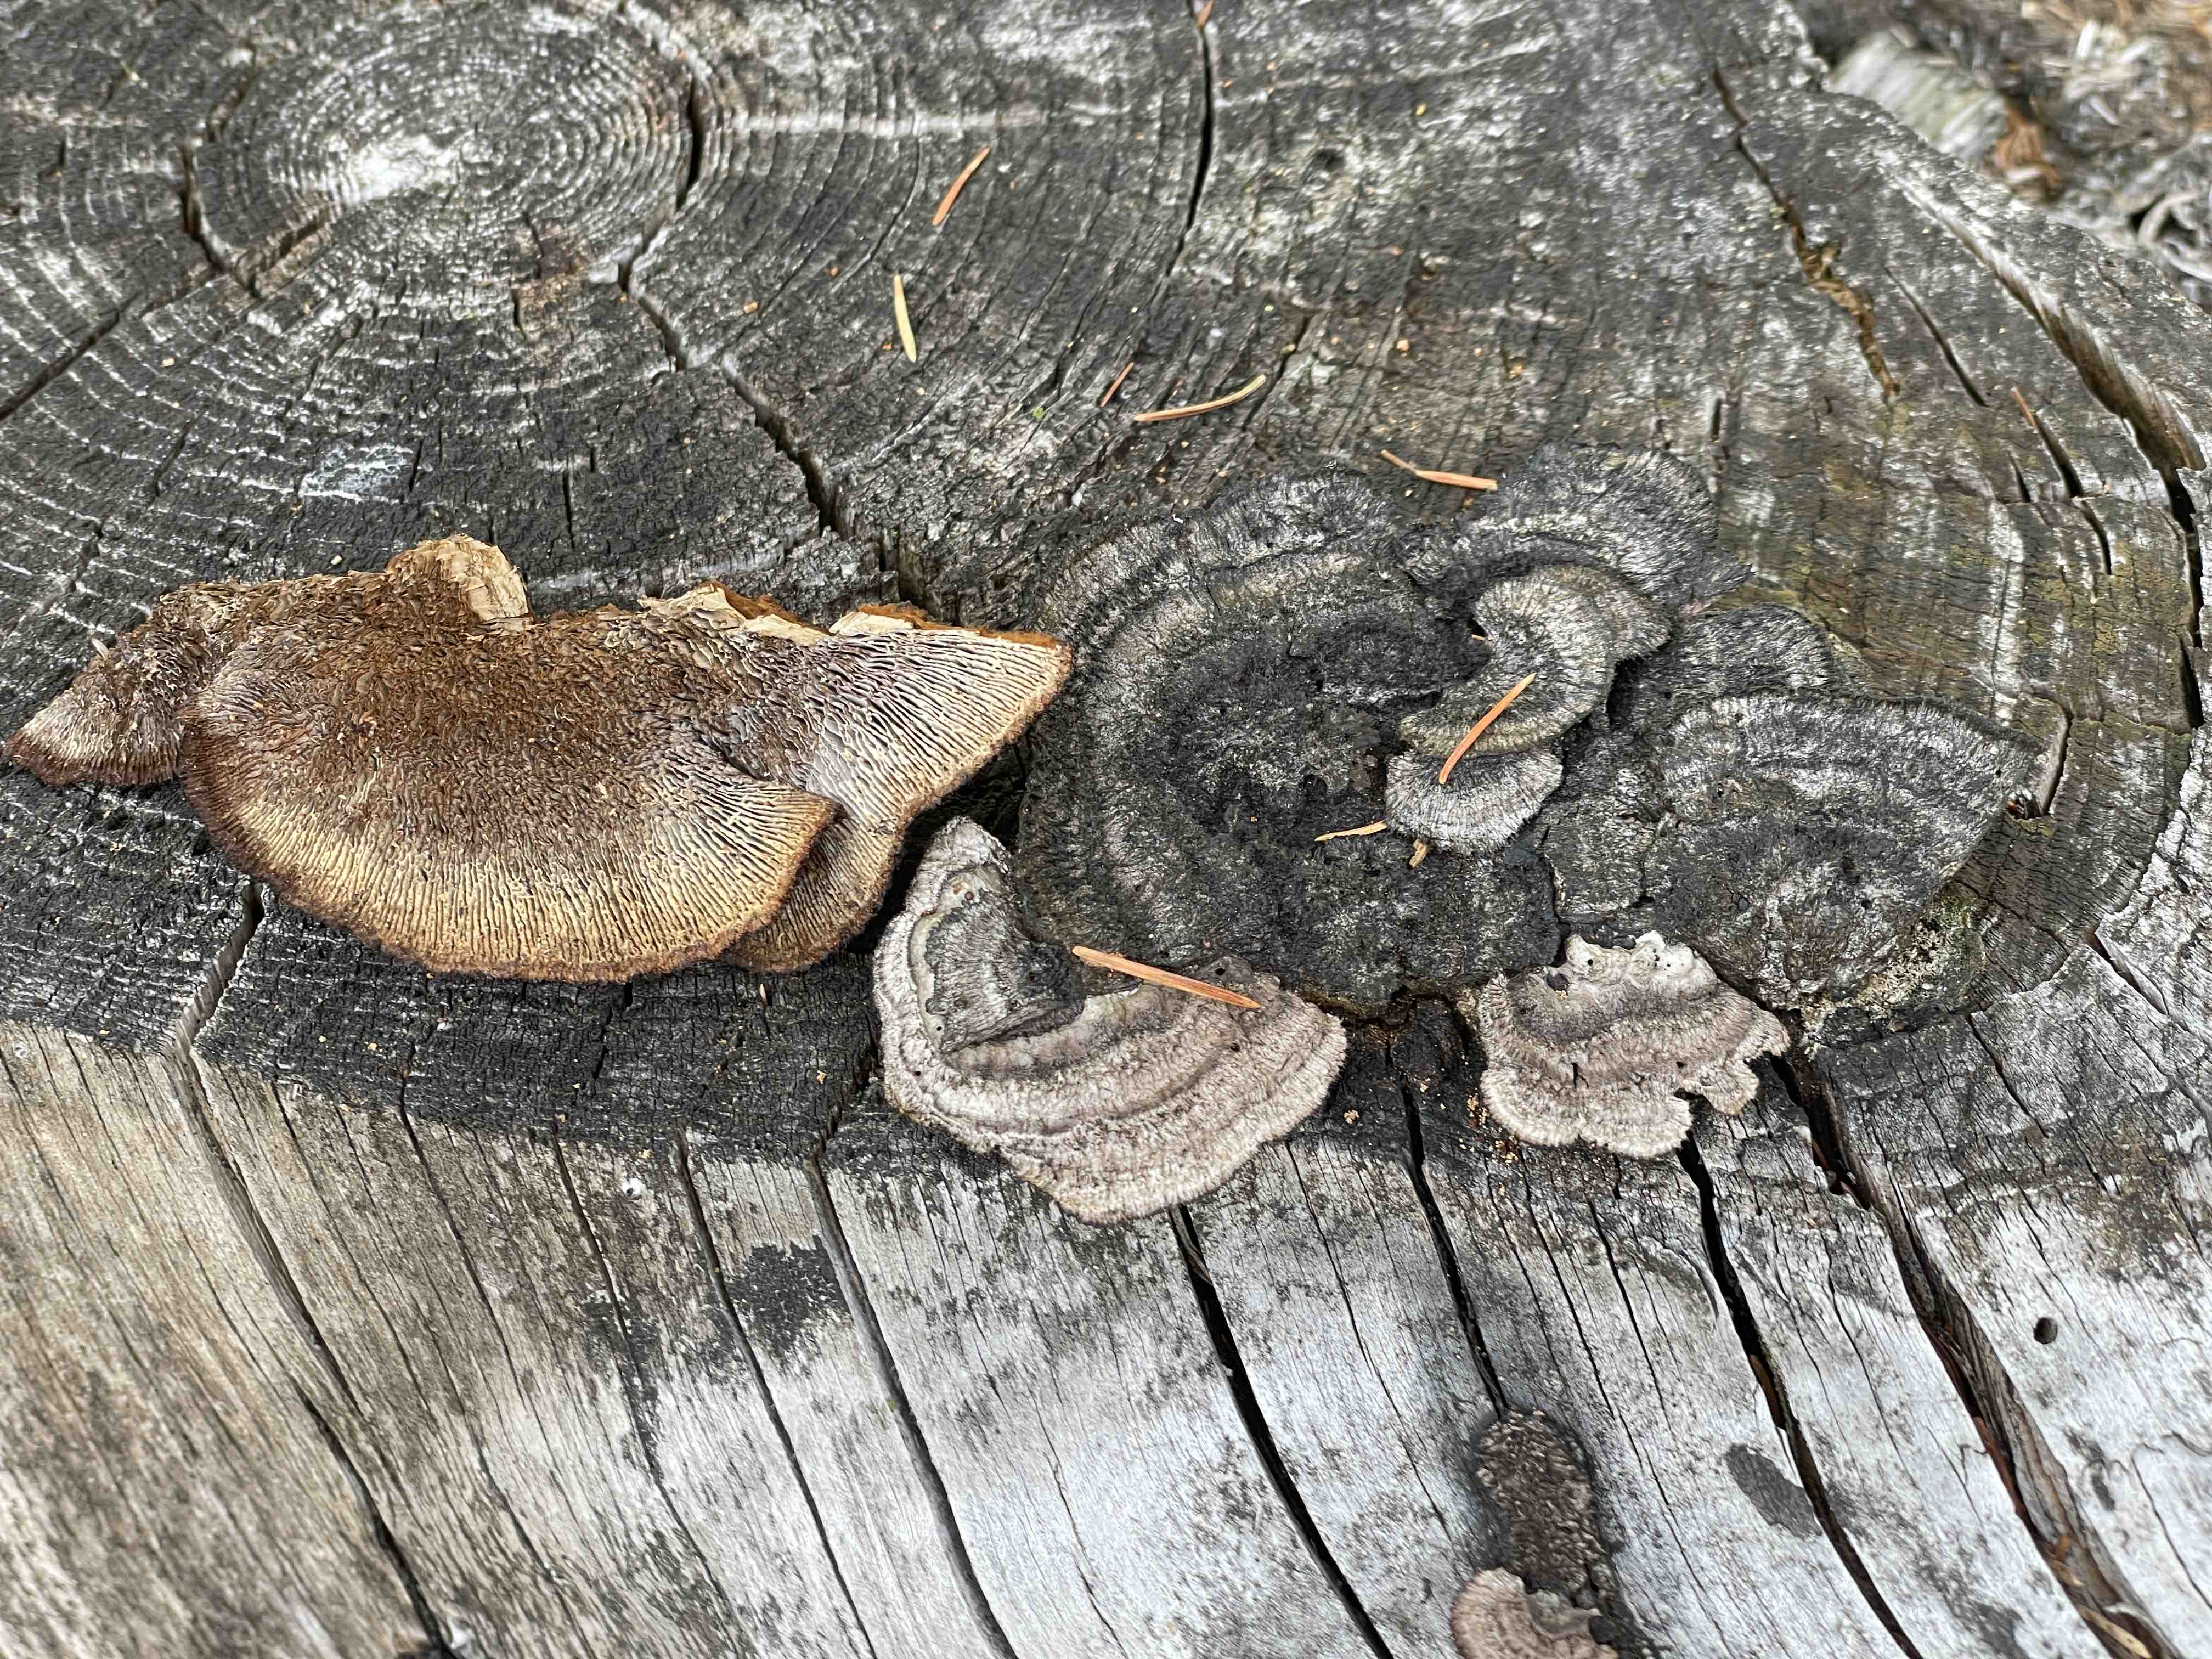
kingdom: Fungi
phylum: Basidiomycota
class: Agaricomycetes
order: Gloeophyllales
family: Gloeophyllaceae
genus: Gloeophyllum
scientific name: Gloeophyllum sepiarium
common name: fyrre-korkhat
